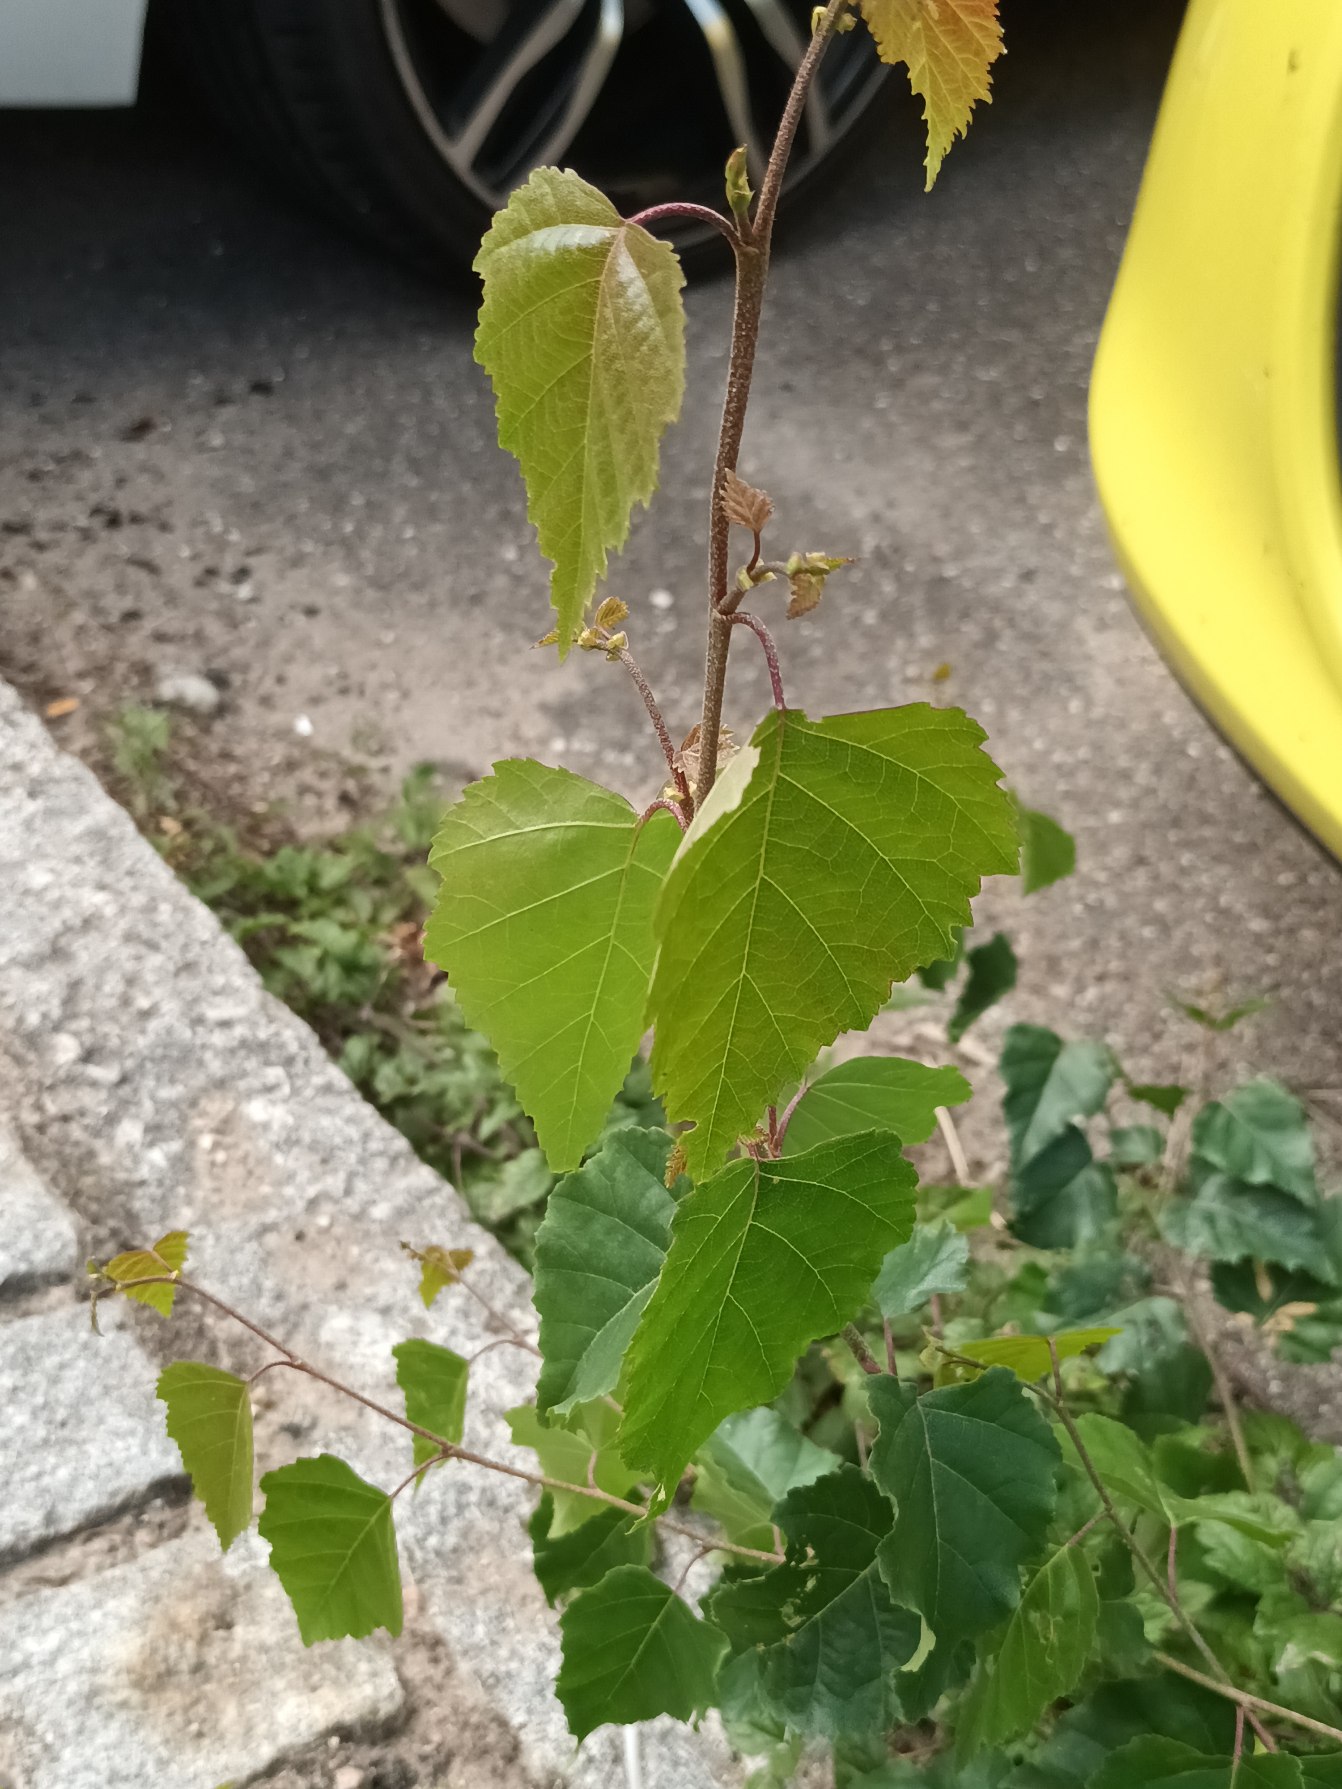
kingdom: Plantae
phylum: Tracheophyta
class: Magnoliopsida
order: Fagales
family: Betulaceae
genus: Betula
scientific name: Betula pendula
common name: Vorte-birk
